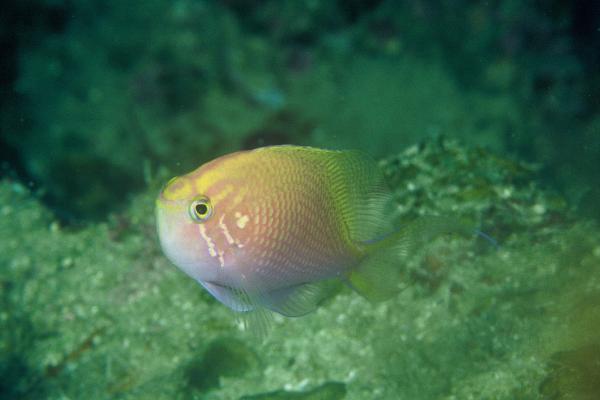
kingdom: Animalia
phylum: Chordata
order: Perciformes
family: Serranidae
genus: Serranocirrhitus
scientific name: Serranocirrhitus latus
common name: Hawkfish anthias
